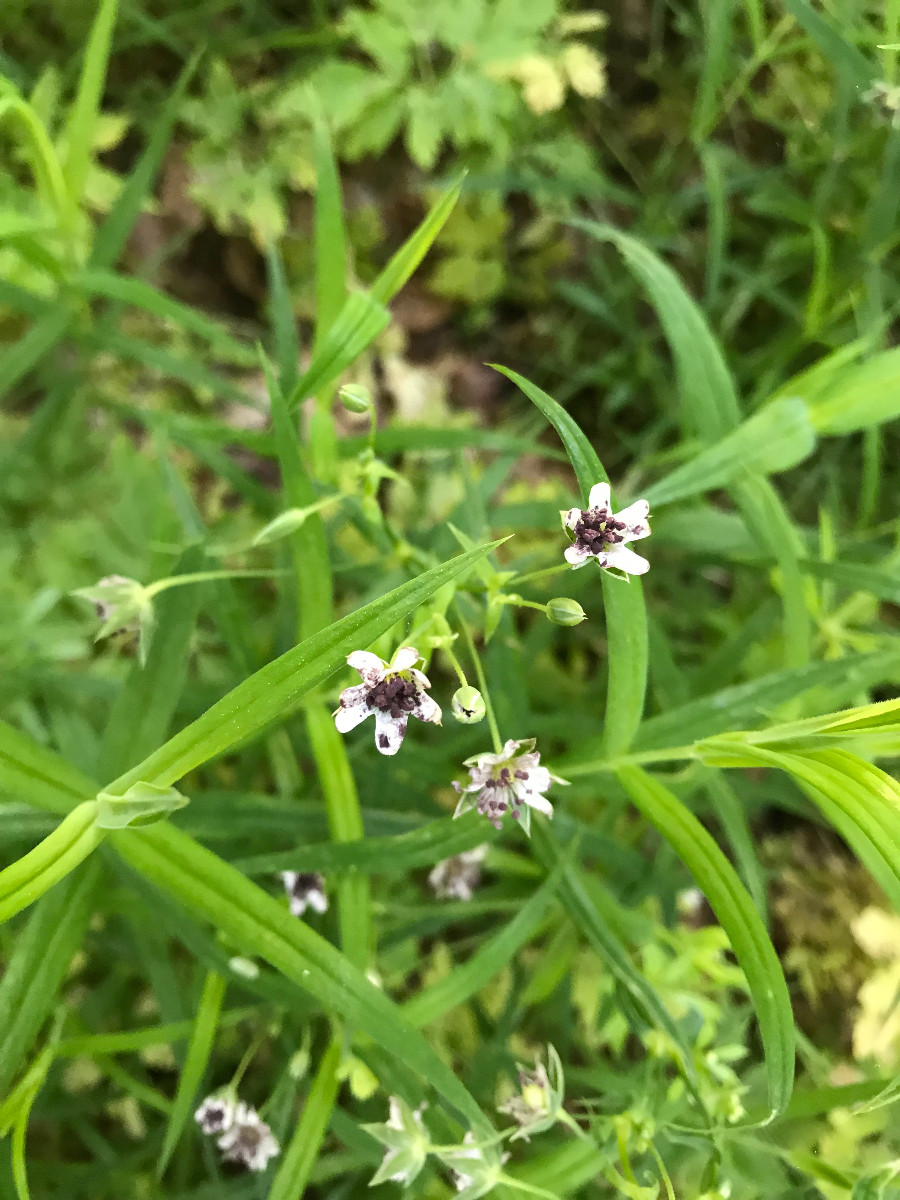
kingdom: Fungi
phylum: Basidiomycota
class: Microbotryomycetes
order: Microbotryales
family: Microbotryaceae
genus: Microbotryum
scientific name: Microbotryum stellariae
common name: fladstjerne-støvbladrust
